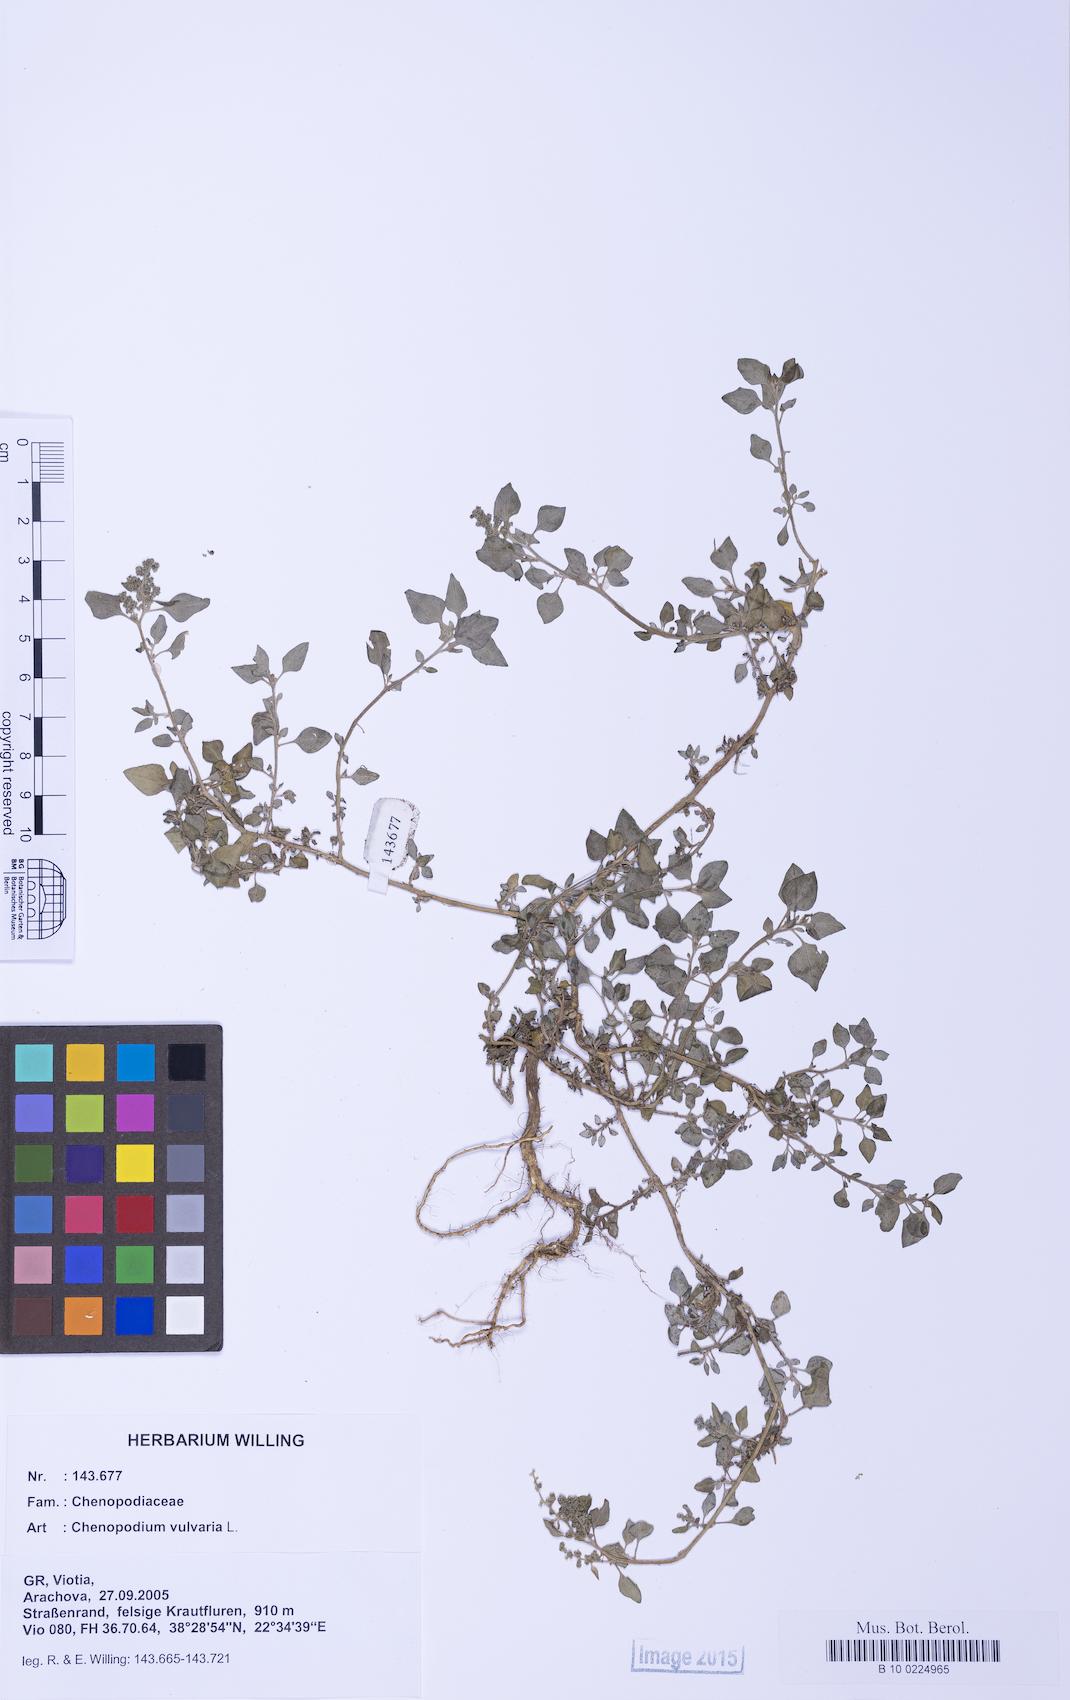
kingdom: Plantae
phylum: Tracheophyta
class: Magnoliopsida
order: Caryophyllales
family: Amaranthaceae
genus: Chenopodium
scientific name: Chenopodium vulvaria
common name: Stinking goosefoot
